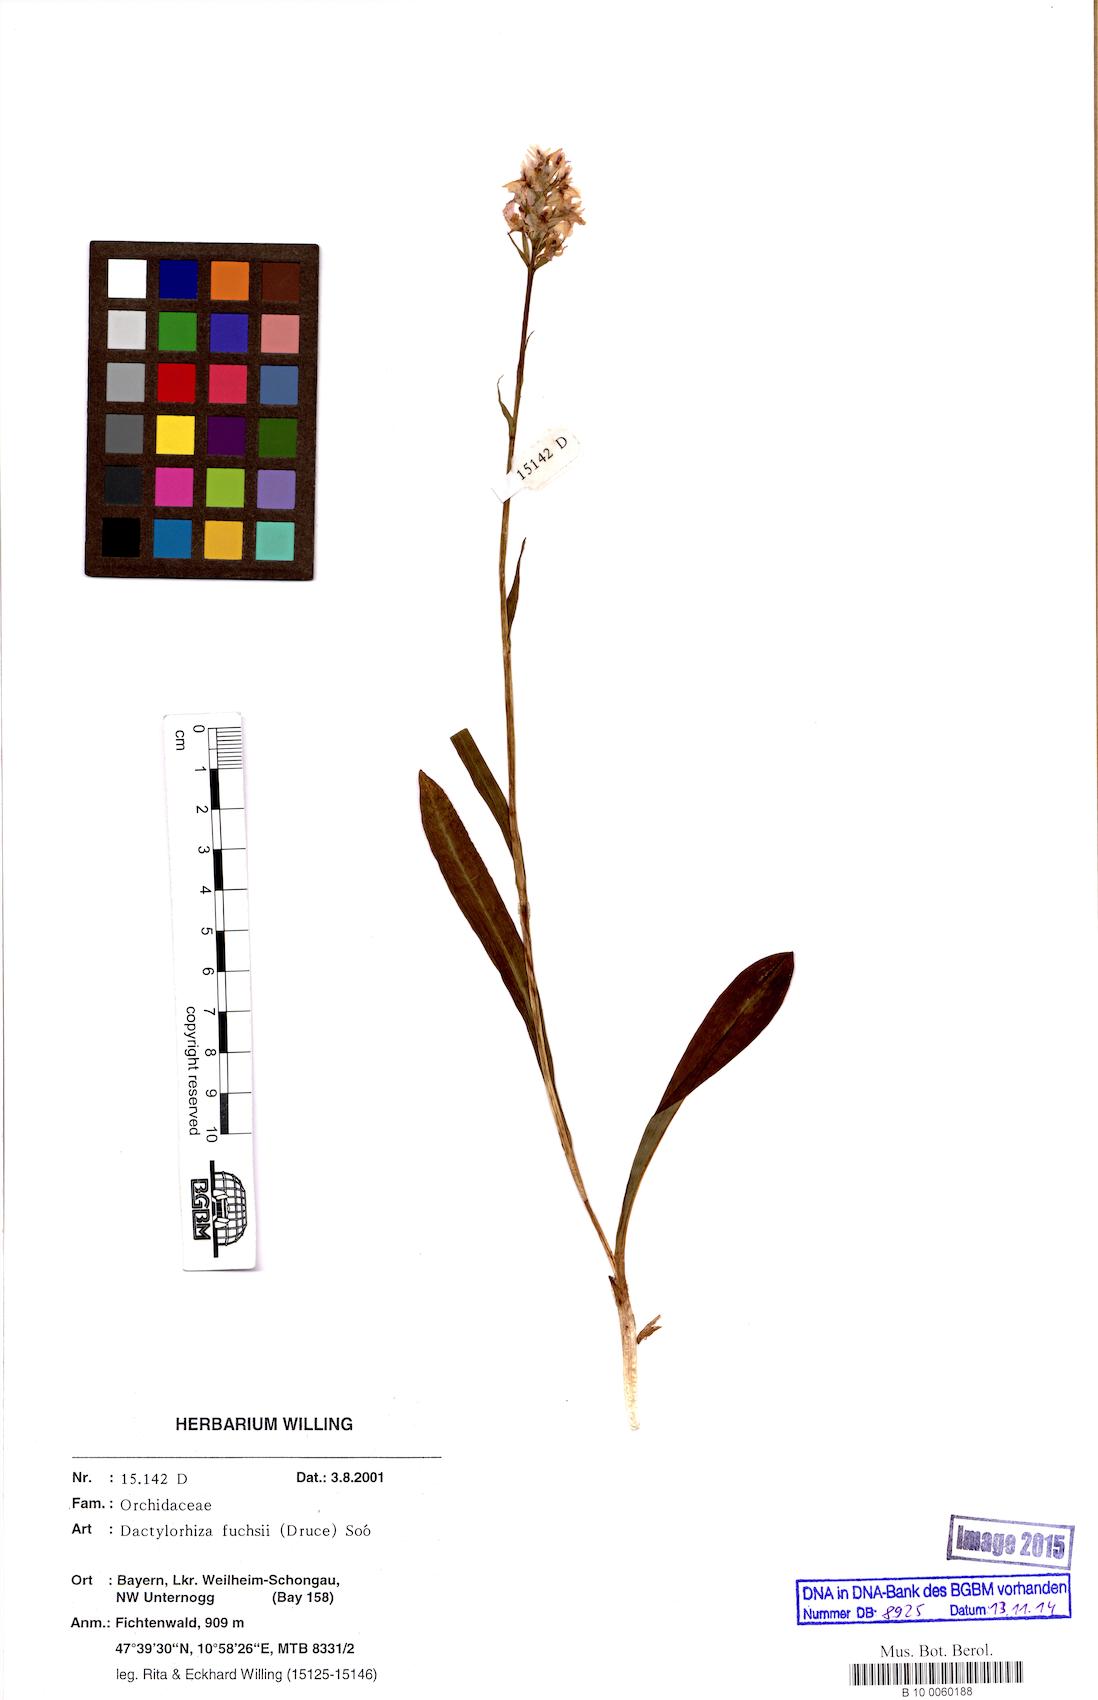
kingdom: Plantae
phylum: Tracheophyta
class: Liliopsida
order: Asparagales
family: Orchidaceae
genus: Dactylorhiza
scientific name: Dactylorhiza maculata
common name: Heath spotted-orchid
